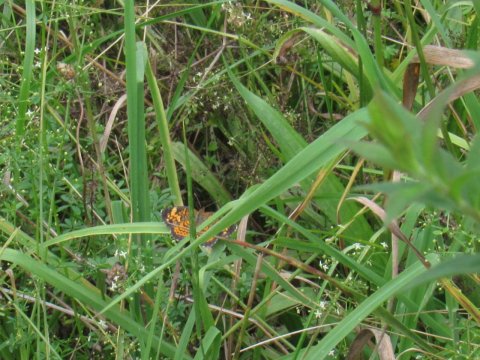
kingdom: Animalia
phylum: Arthropoda
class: Insecta
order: Lepidoptera
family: Nymphalidae
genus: Phyciodes
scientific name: Phyciodes
